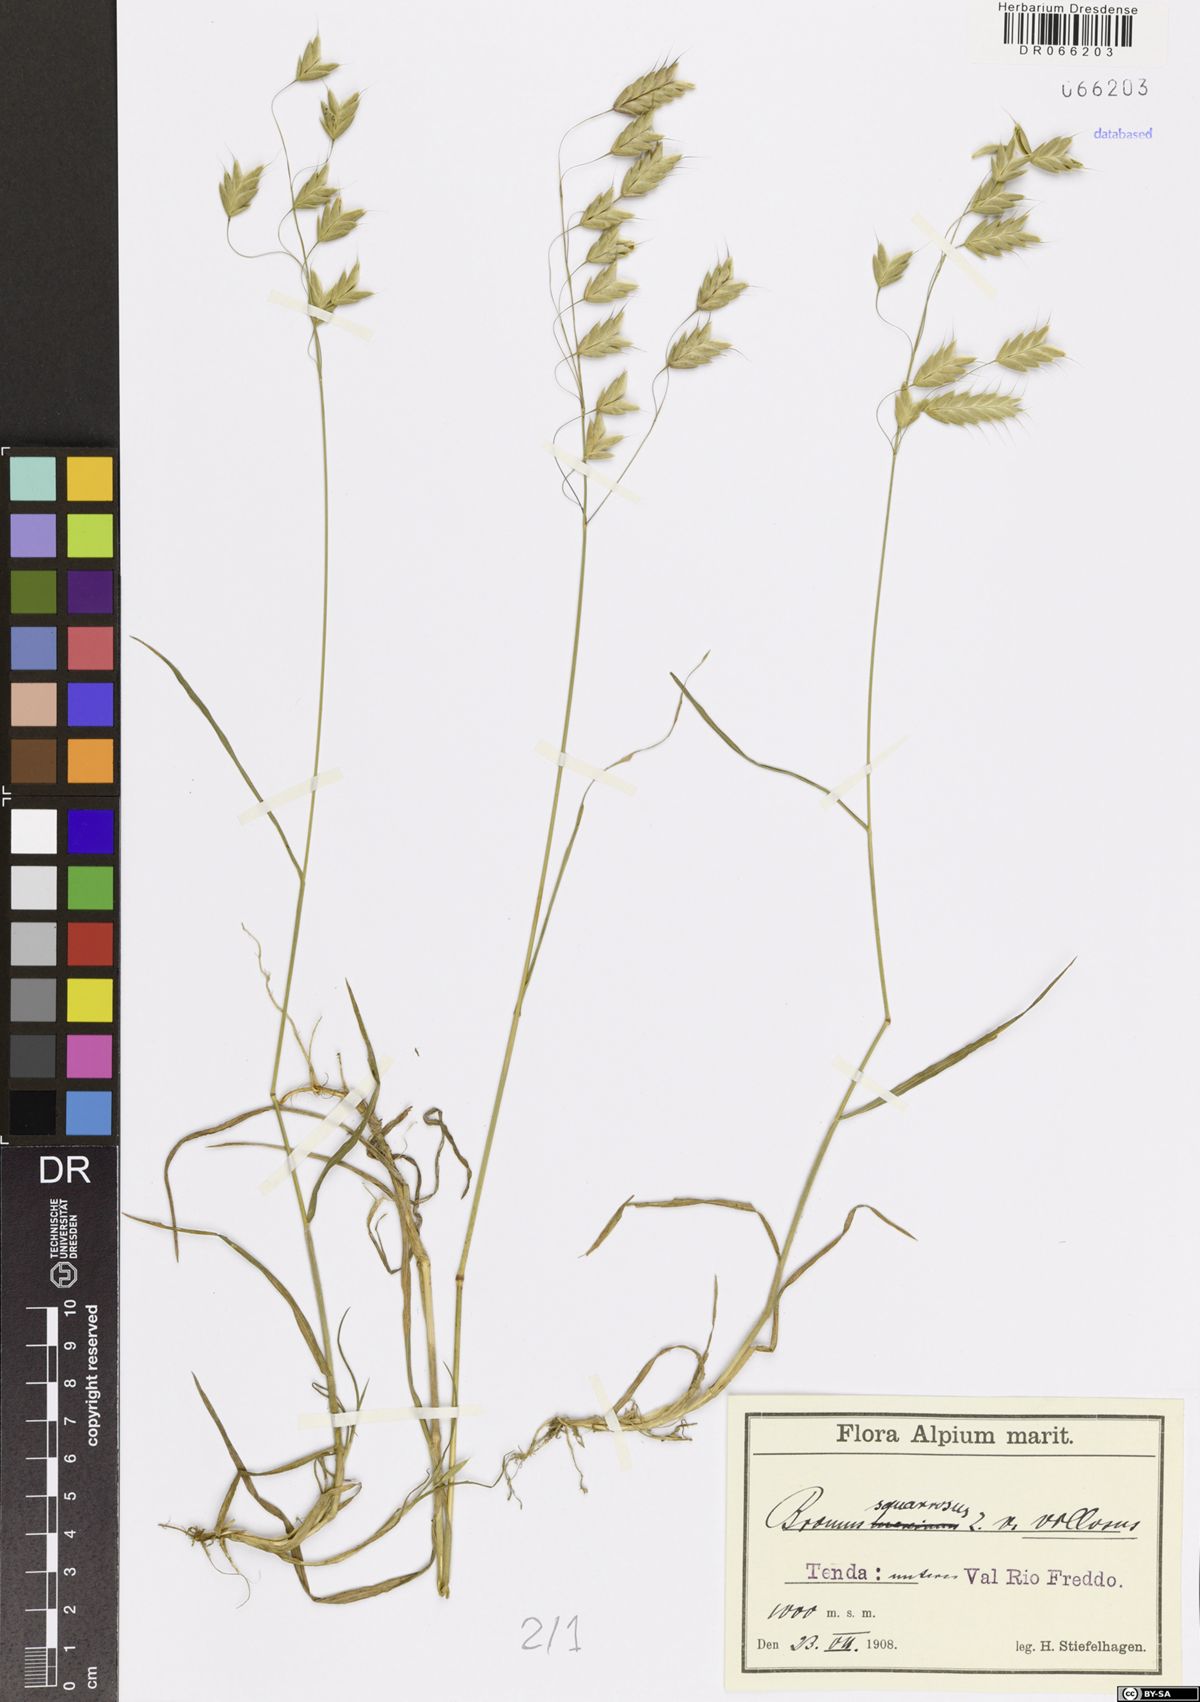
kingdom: Plantae
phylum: Tracheophyta
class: Liliopsida
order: Poales
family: Poaceae
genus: Bromus
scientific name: Bromus squarrosus
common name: Corn brome
